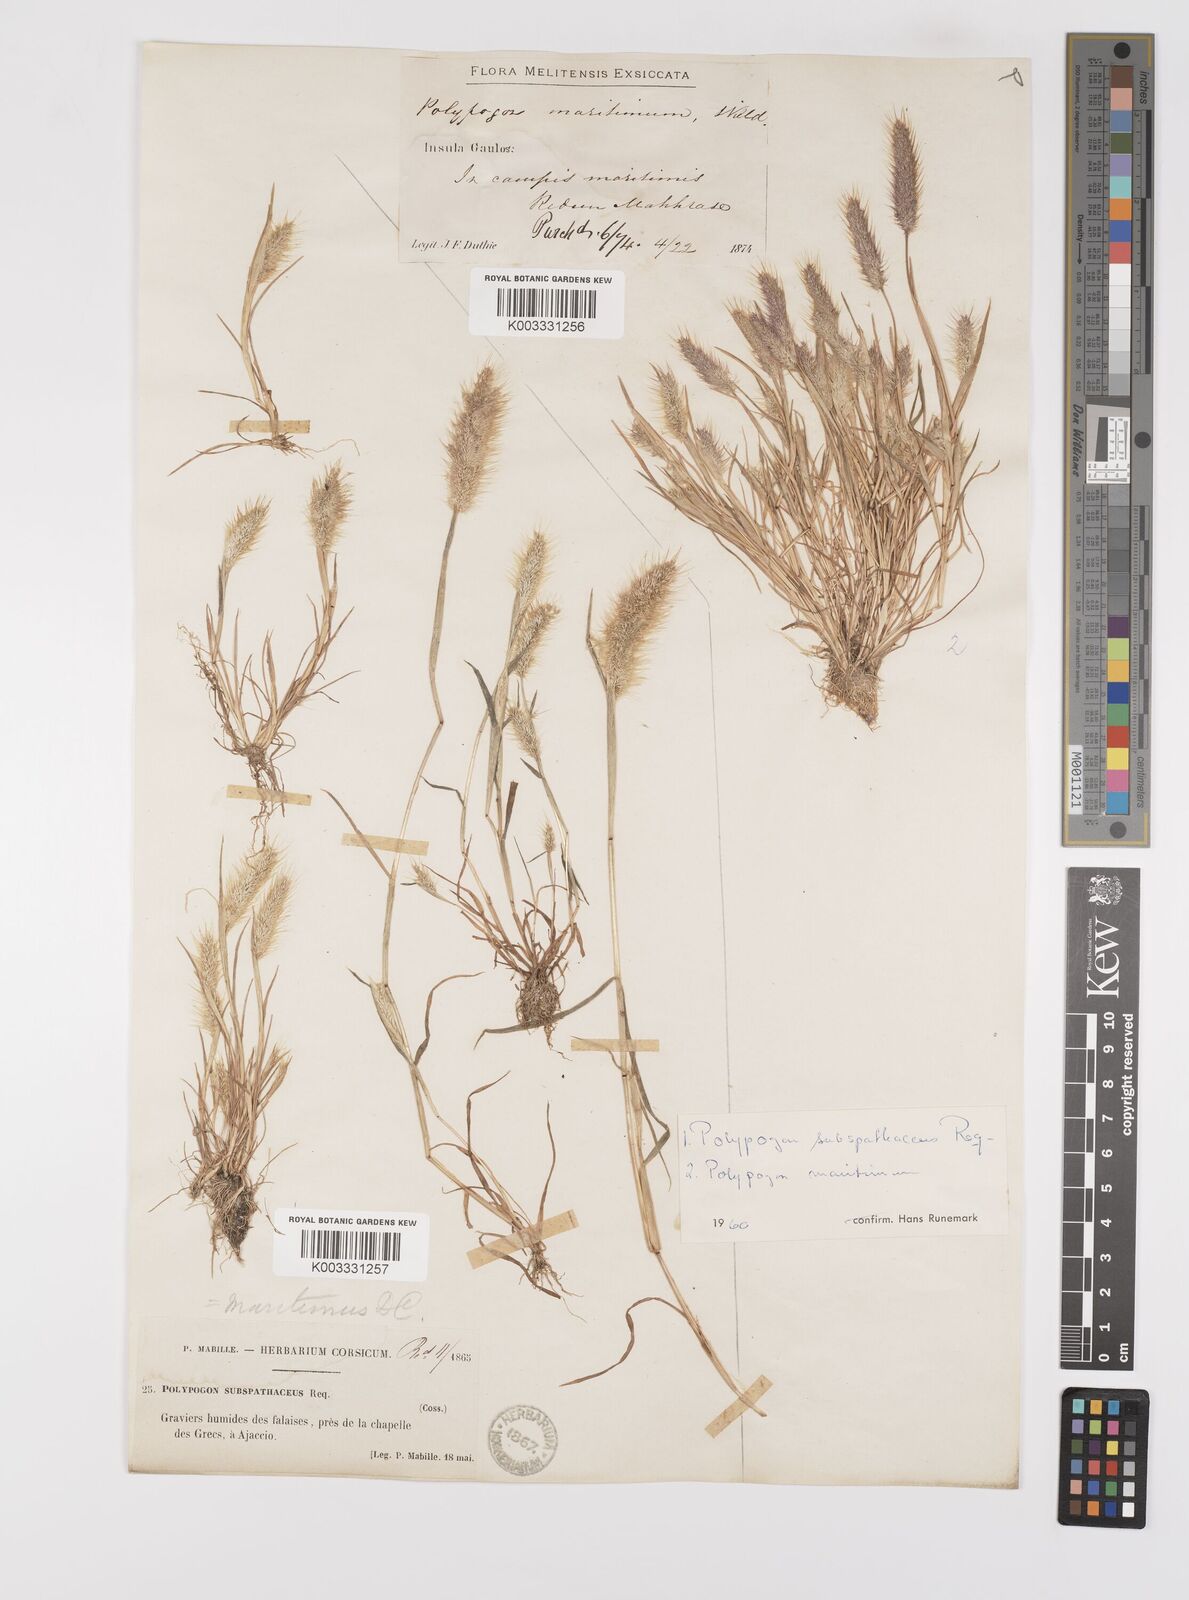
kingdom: Plantae
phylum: Tracheophyta
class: Liliopsida
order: Poales
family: Poaceae
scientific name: Poaceae
